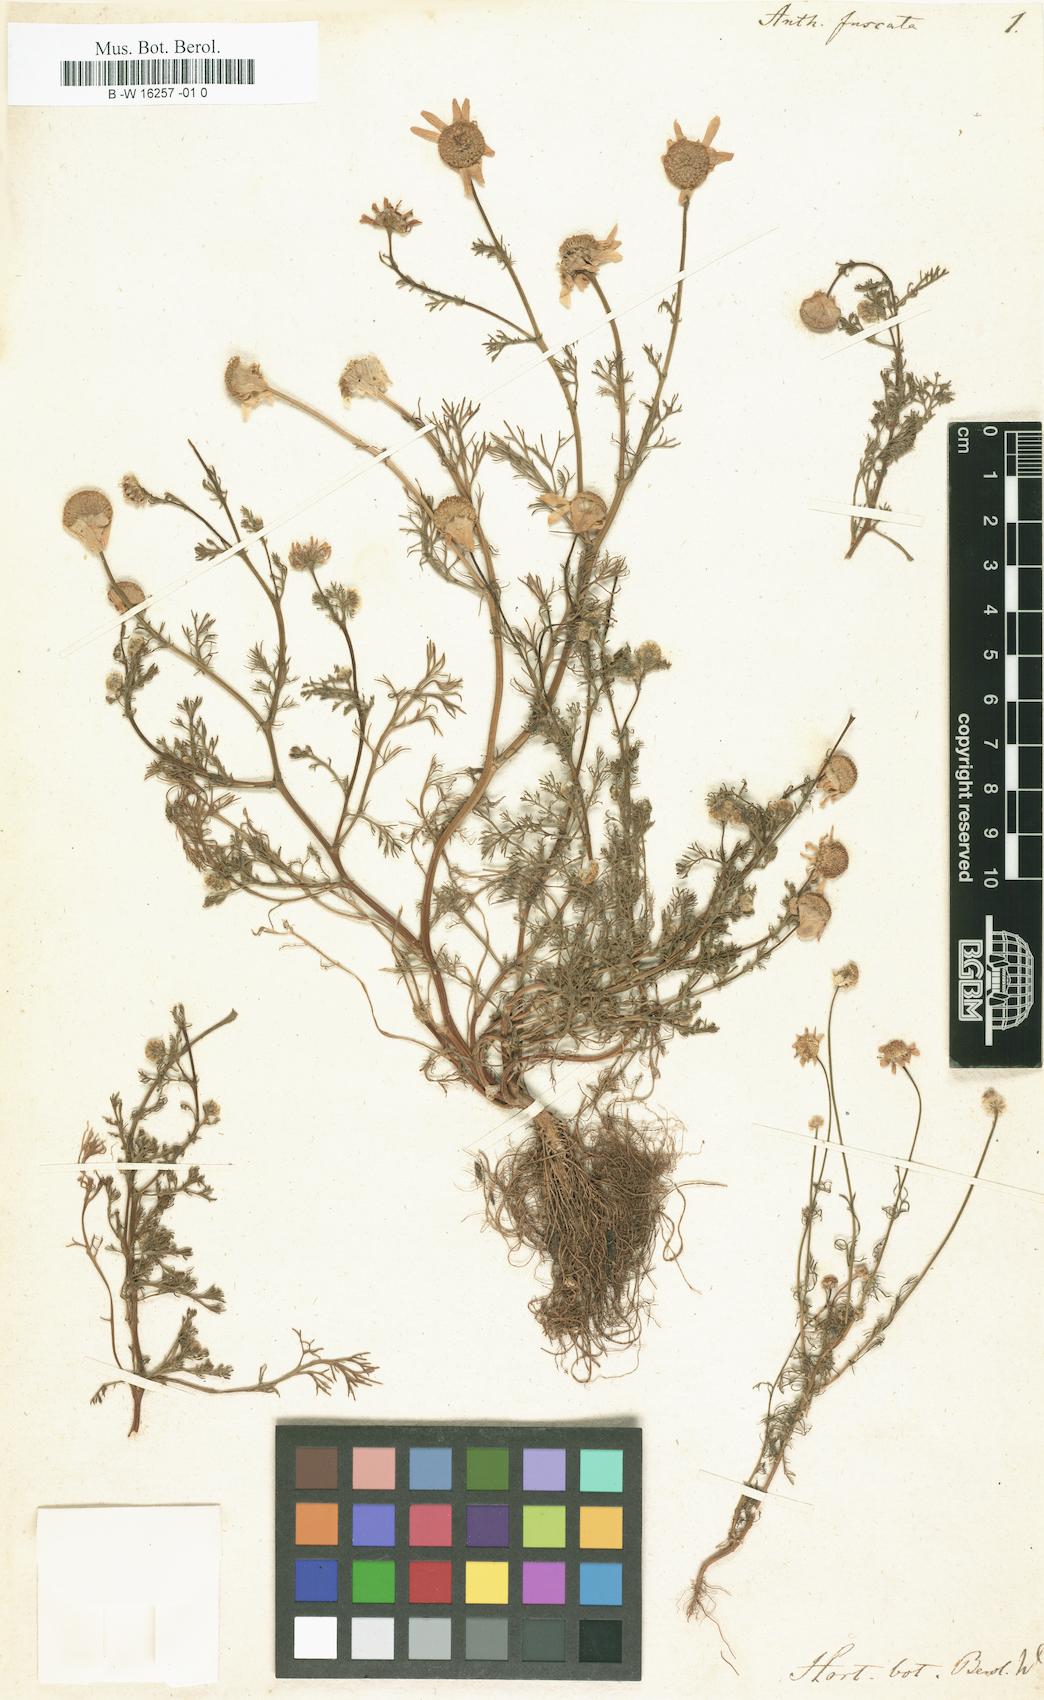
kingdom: Plantae
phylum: Tracheophyta
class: Magnoliopsida
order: Asterales
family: Asteraceae
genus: Chamaemelum
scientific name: Chamaemelum fuscatum
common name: Chamomile
